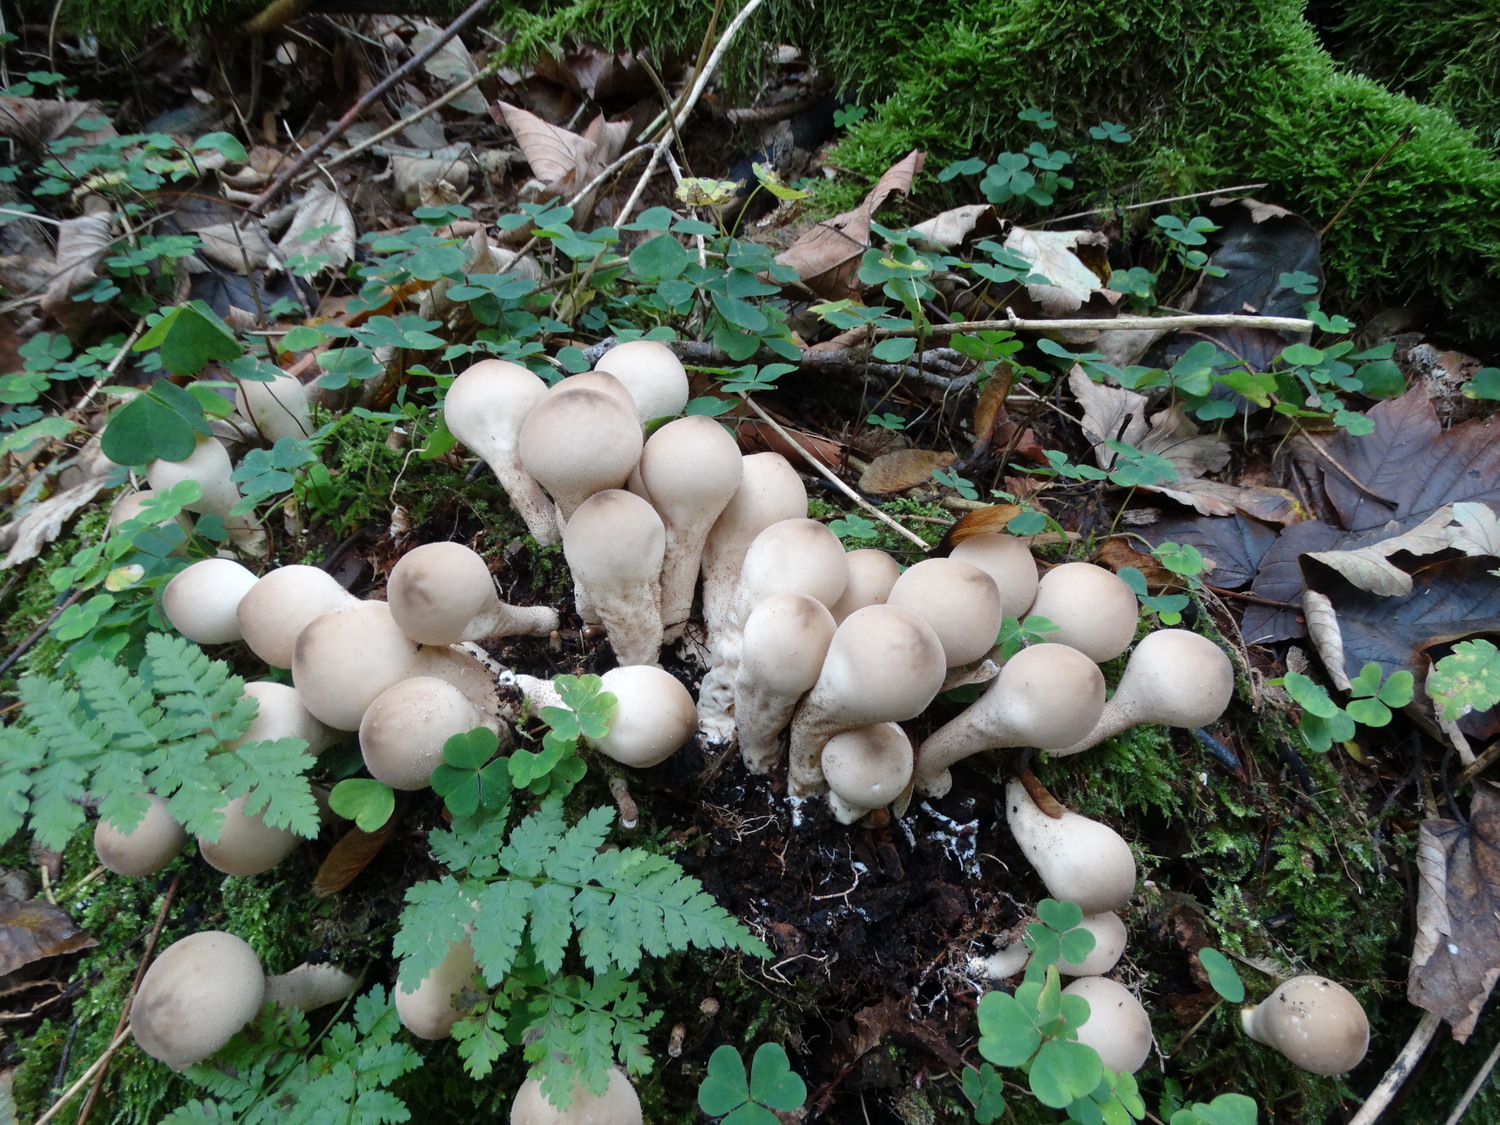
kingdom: Fungi
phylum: Basidiomycota
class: Agaricomycetes
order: Agaricales
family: Lycoperdaceae
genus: Apioperdon
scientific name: Apioperdon pyriforme
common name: pære-støvbold
